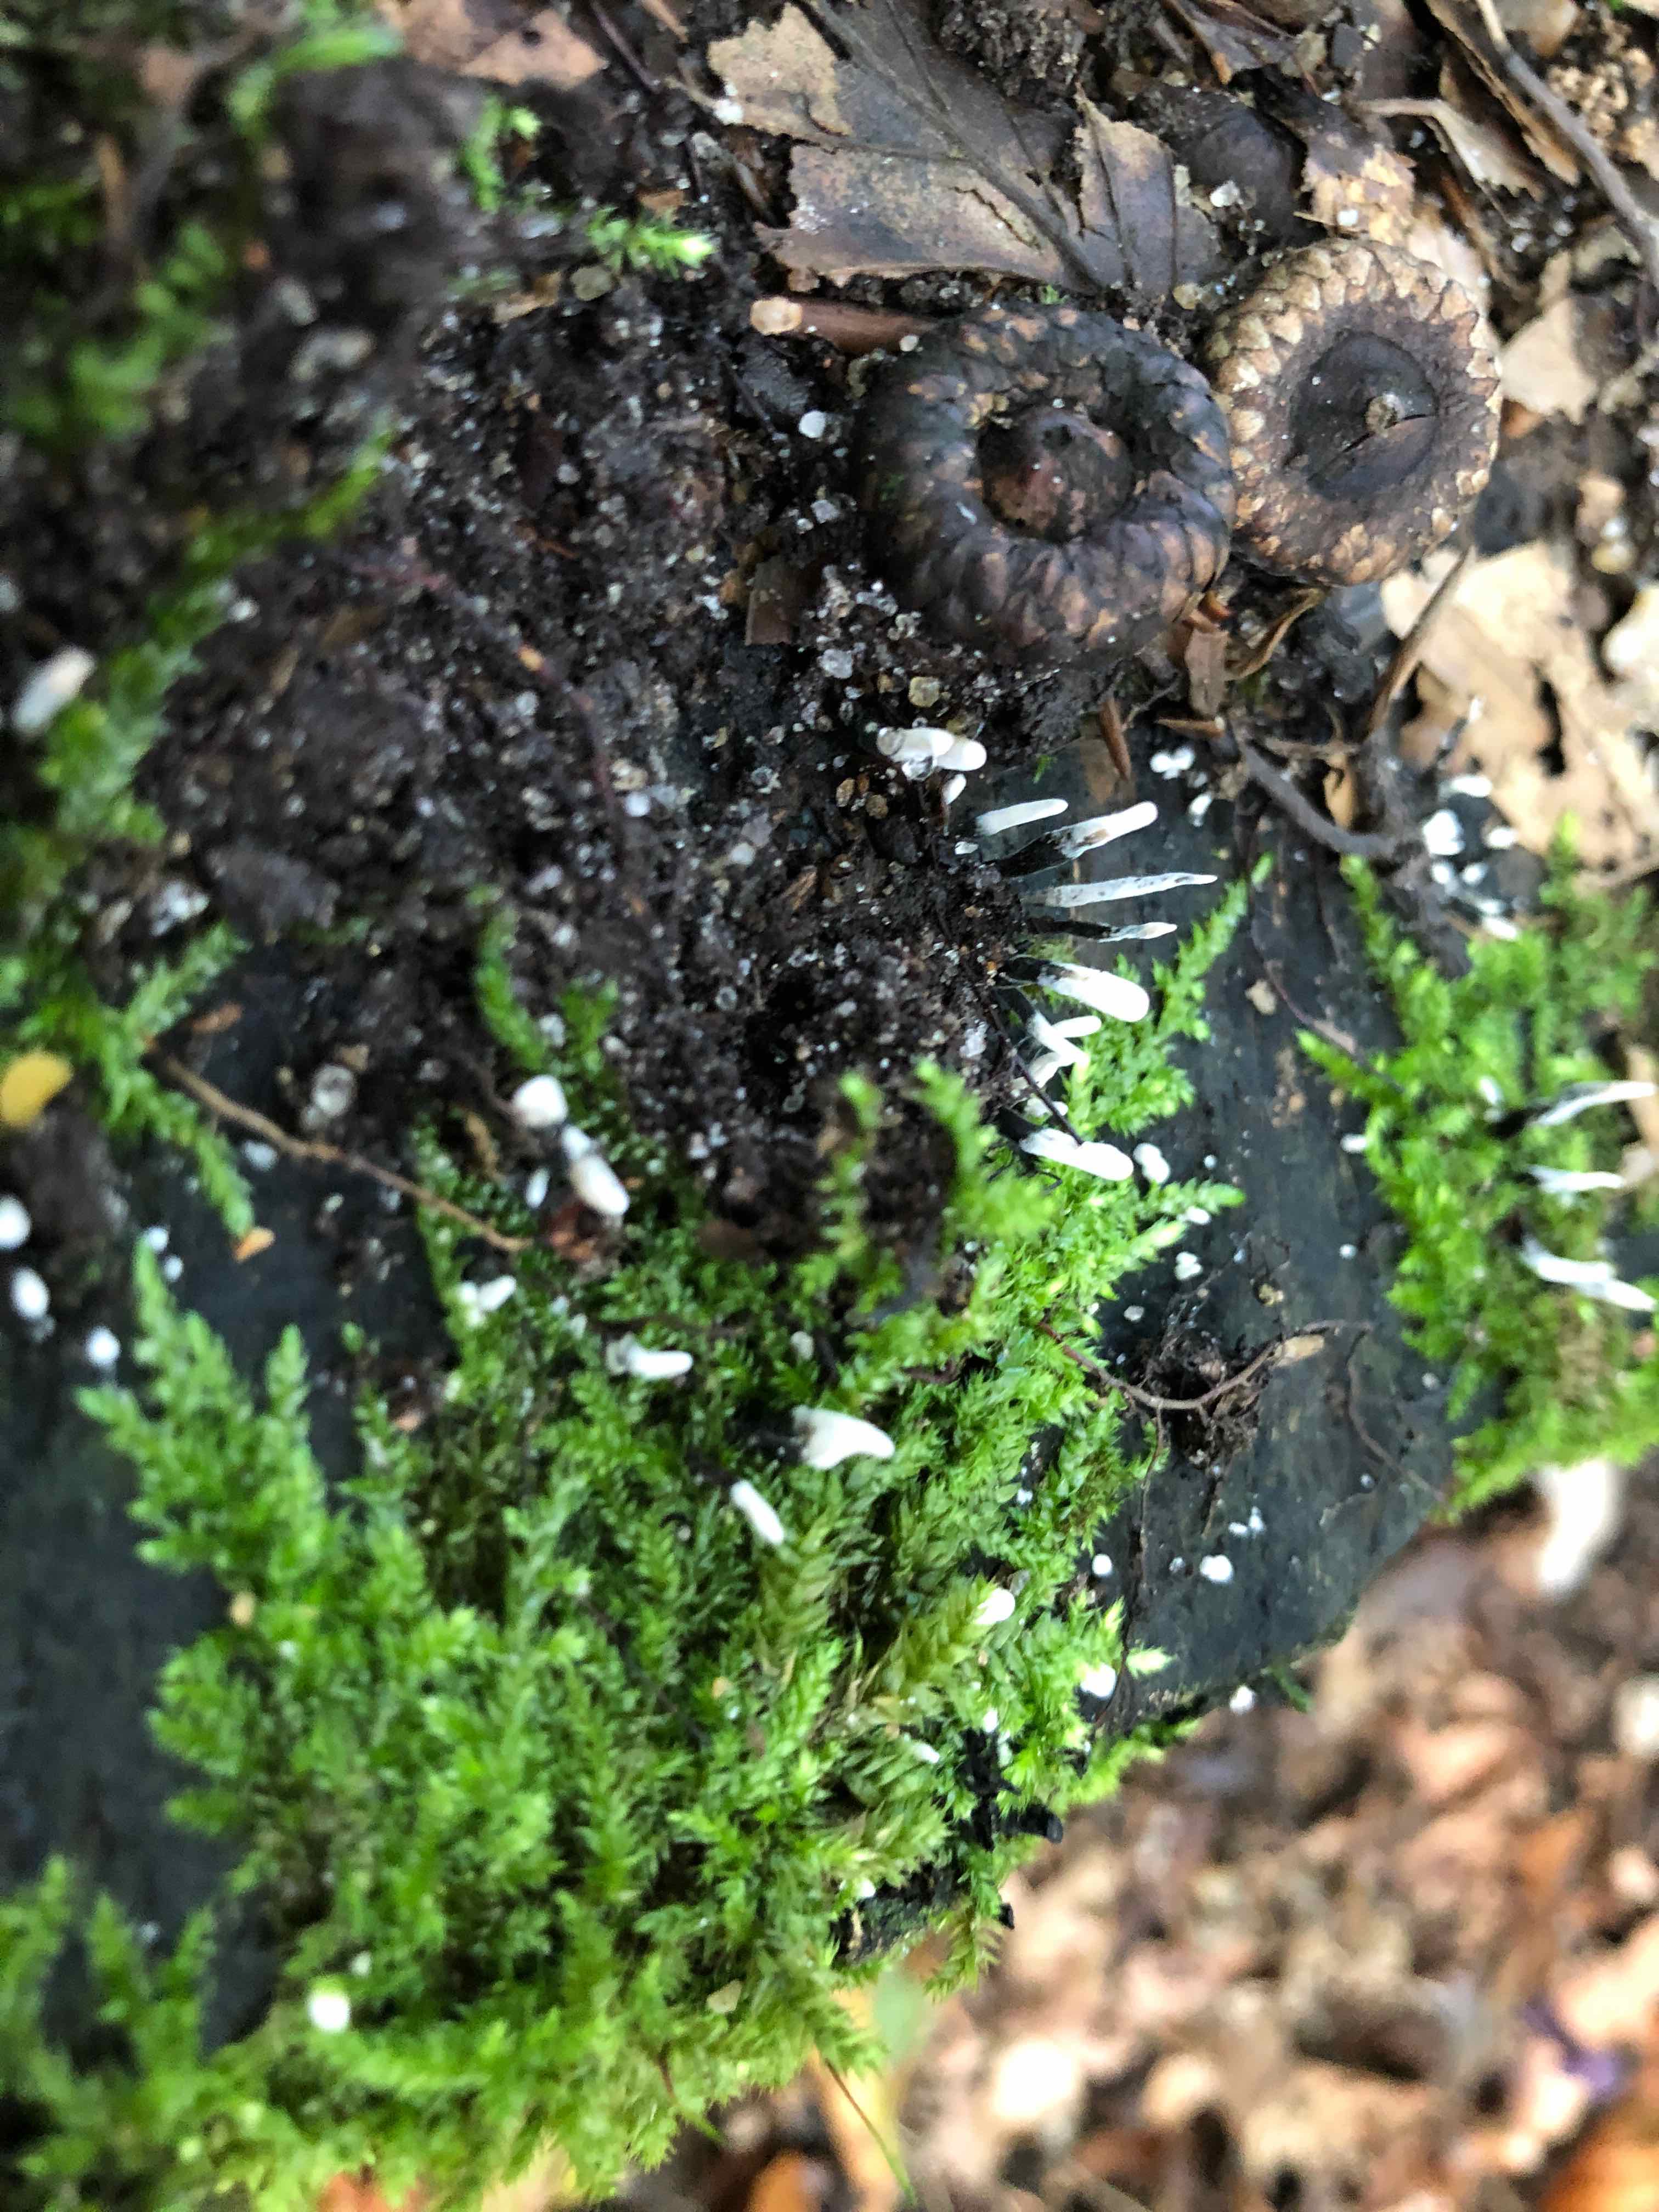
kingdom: Fungi
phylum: Ascomycota
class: Sordariomycetes
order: Xylariales
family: Xylariaceae
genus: Xylaria
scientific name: Xylaria hypoxylon
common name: grenet stødsvamp
